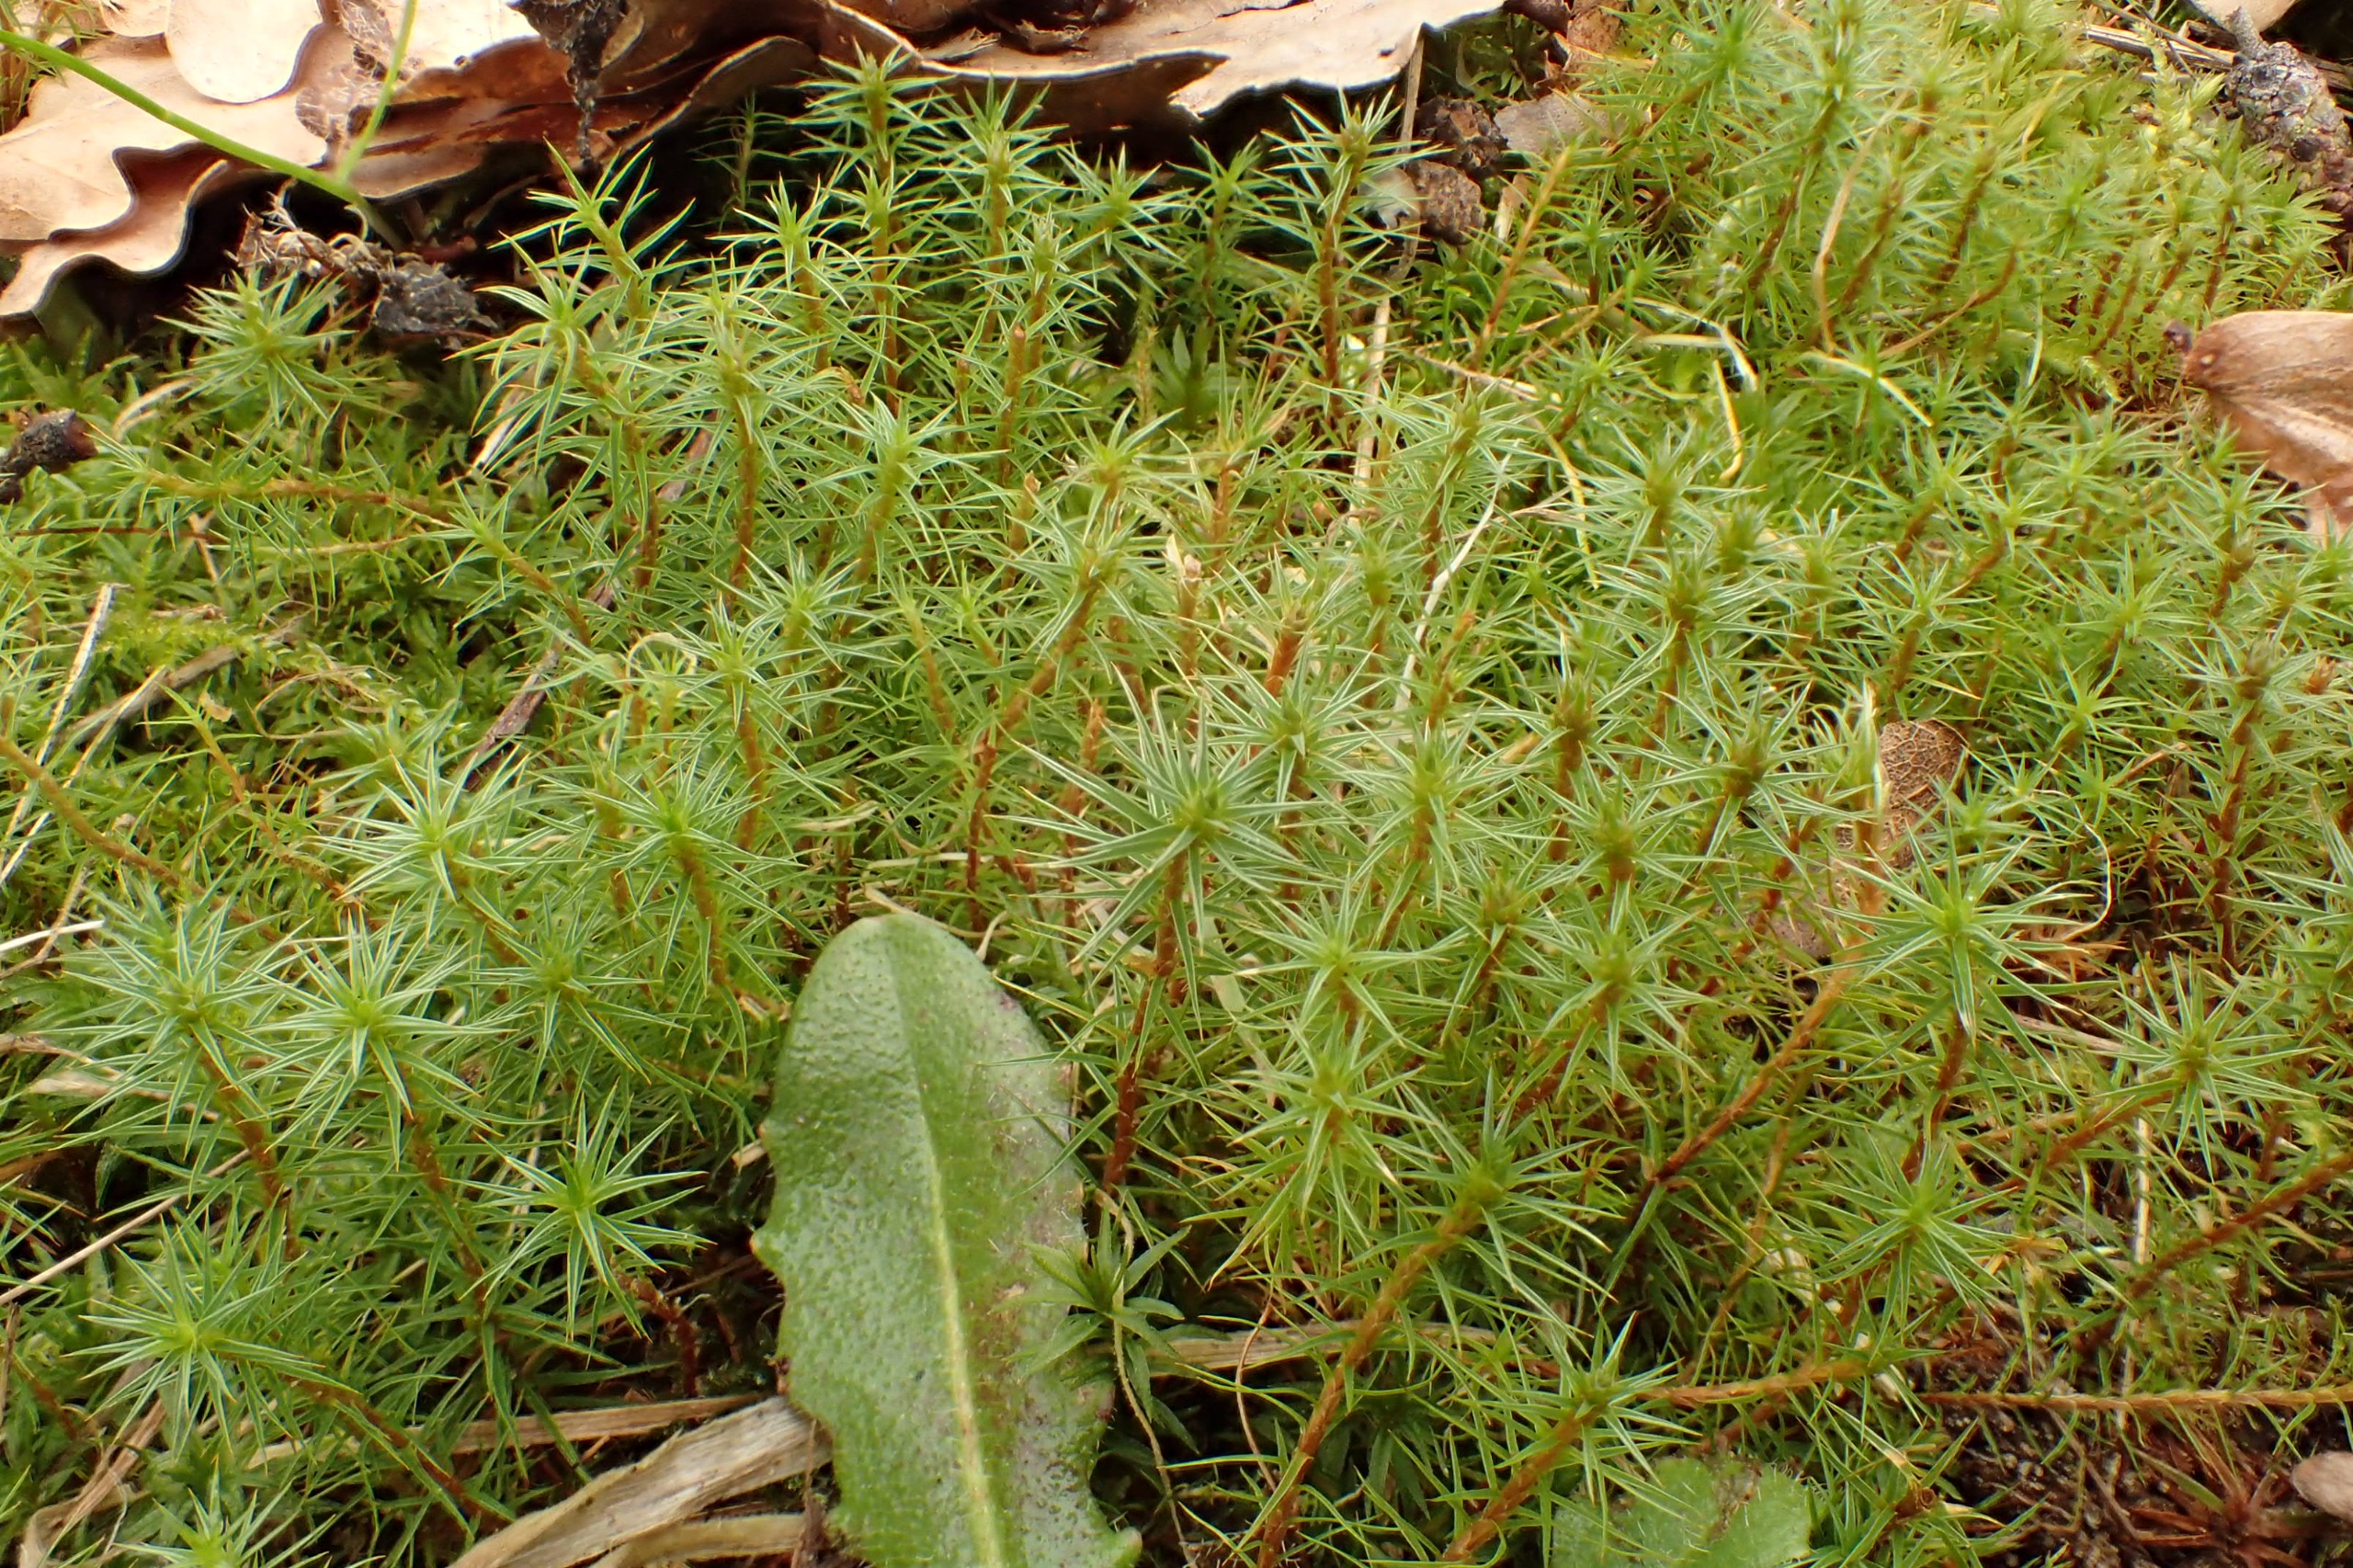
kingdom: Plantae
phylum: Bryophyta
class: Polytrichopsida
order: Polytrichales
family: Polytrichaceae
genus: Polytrichum
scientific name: Polytrichum juniperinum
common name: Ene-jomfruhår
